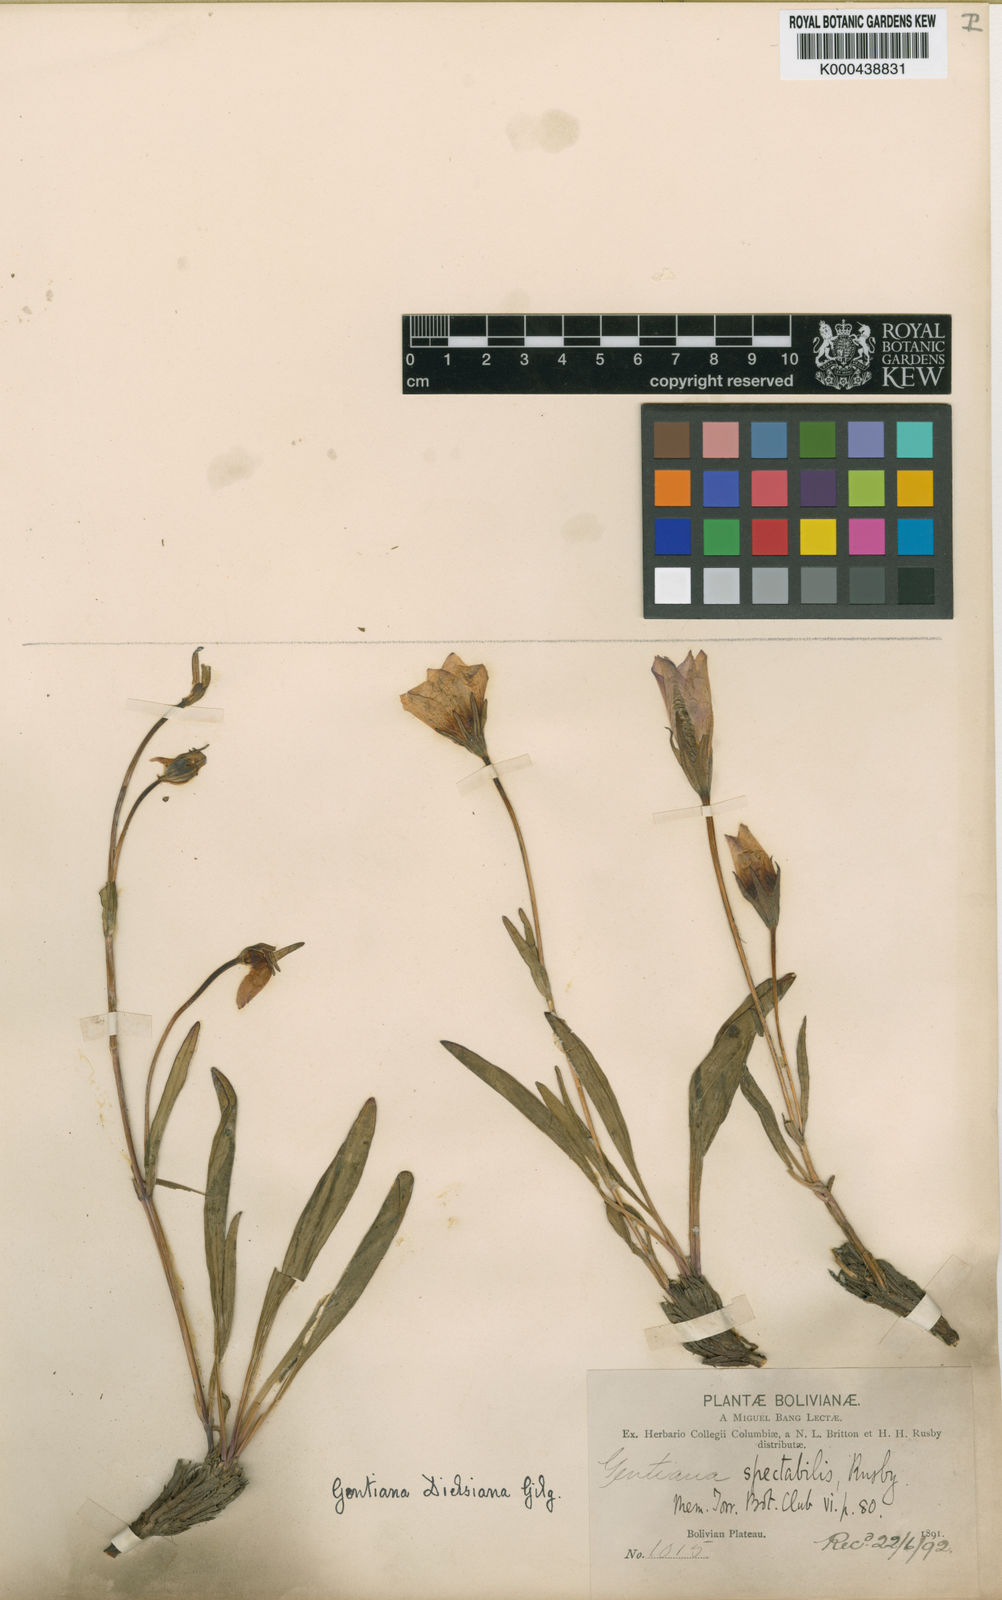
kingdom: Plantae
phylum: Tracheophyta
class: Magnoliopsida
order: Gentianales
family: Gentianaceae
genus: Gentianella
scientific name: Gentianella dielsiana
